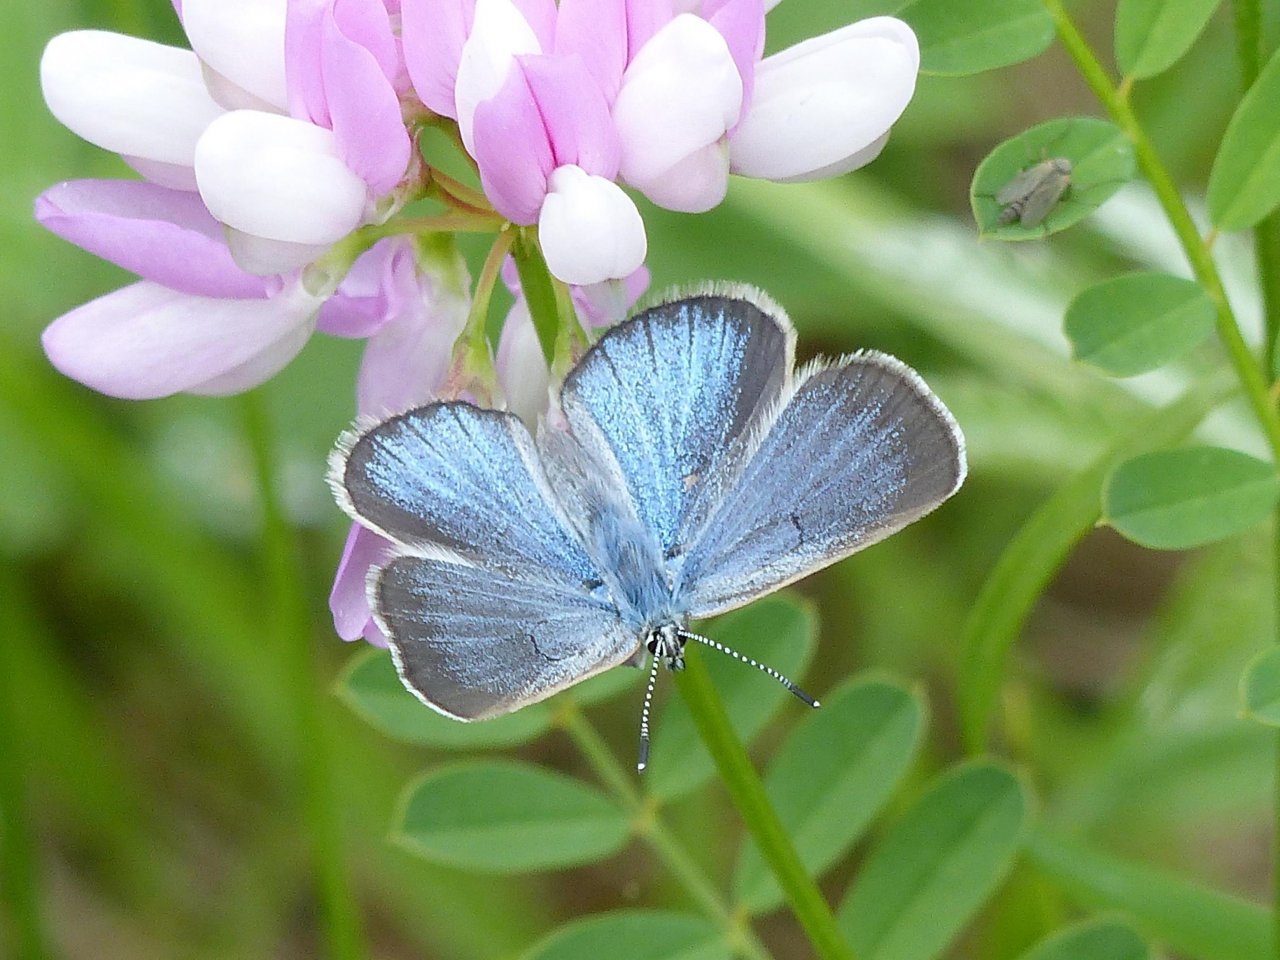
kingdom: Animalia
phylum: Arthropoda
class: Insecta
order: Lepidoptera
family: Lycaenidae
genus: Glaucopsyche
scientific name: Glaucopsyche lygdamus
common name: Silvery Blue
